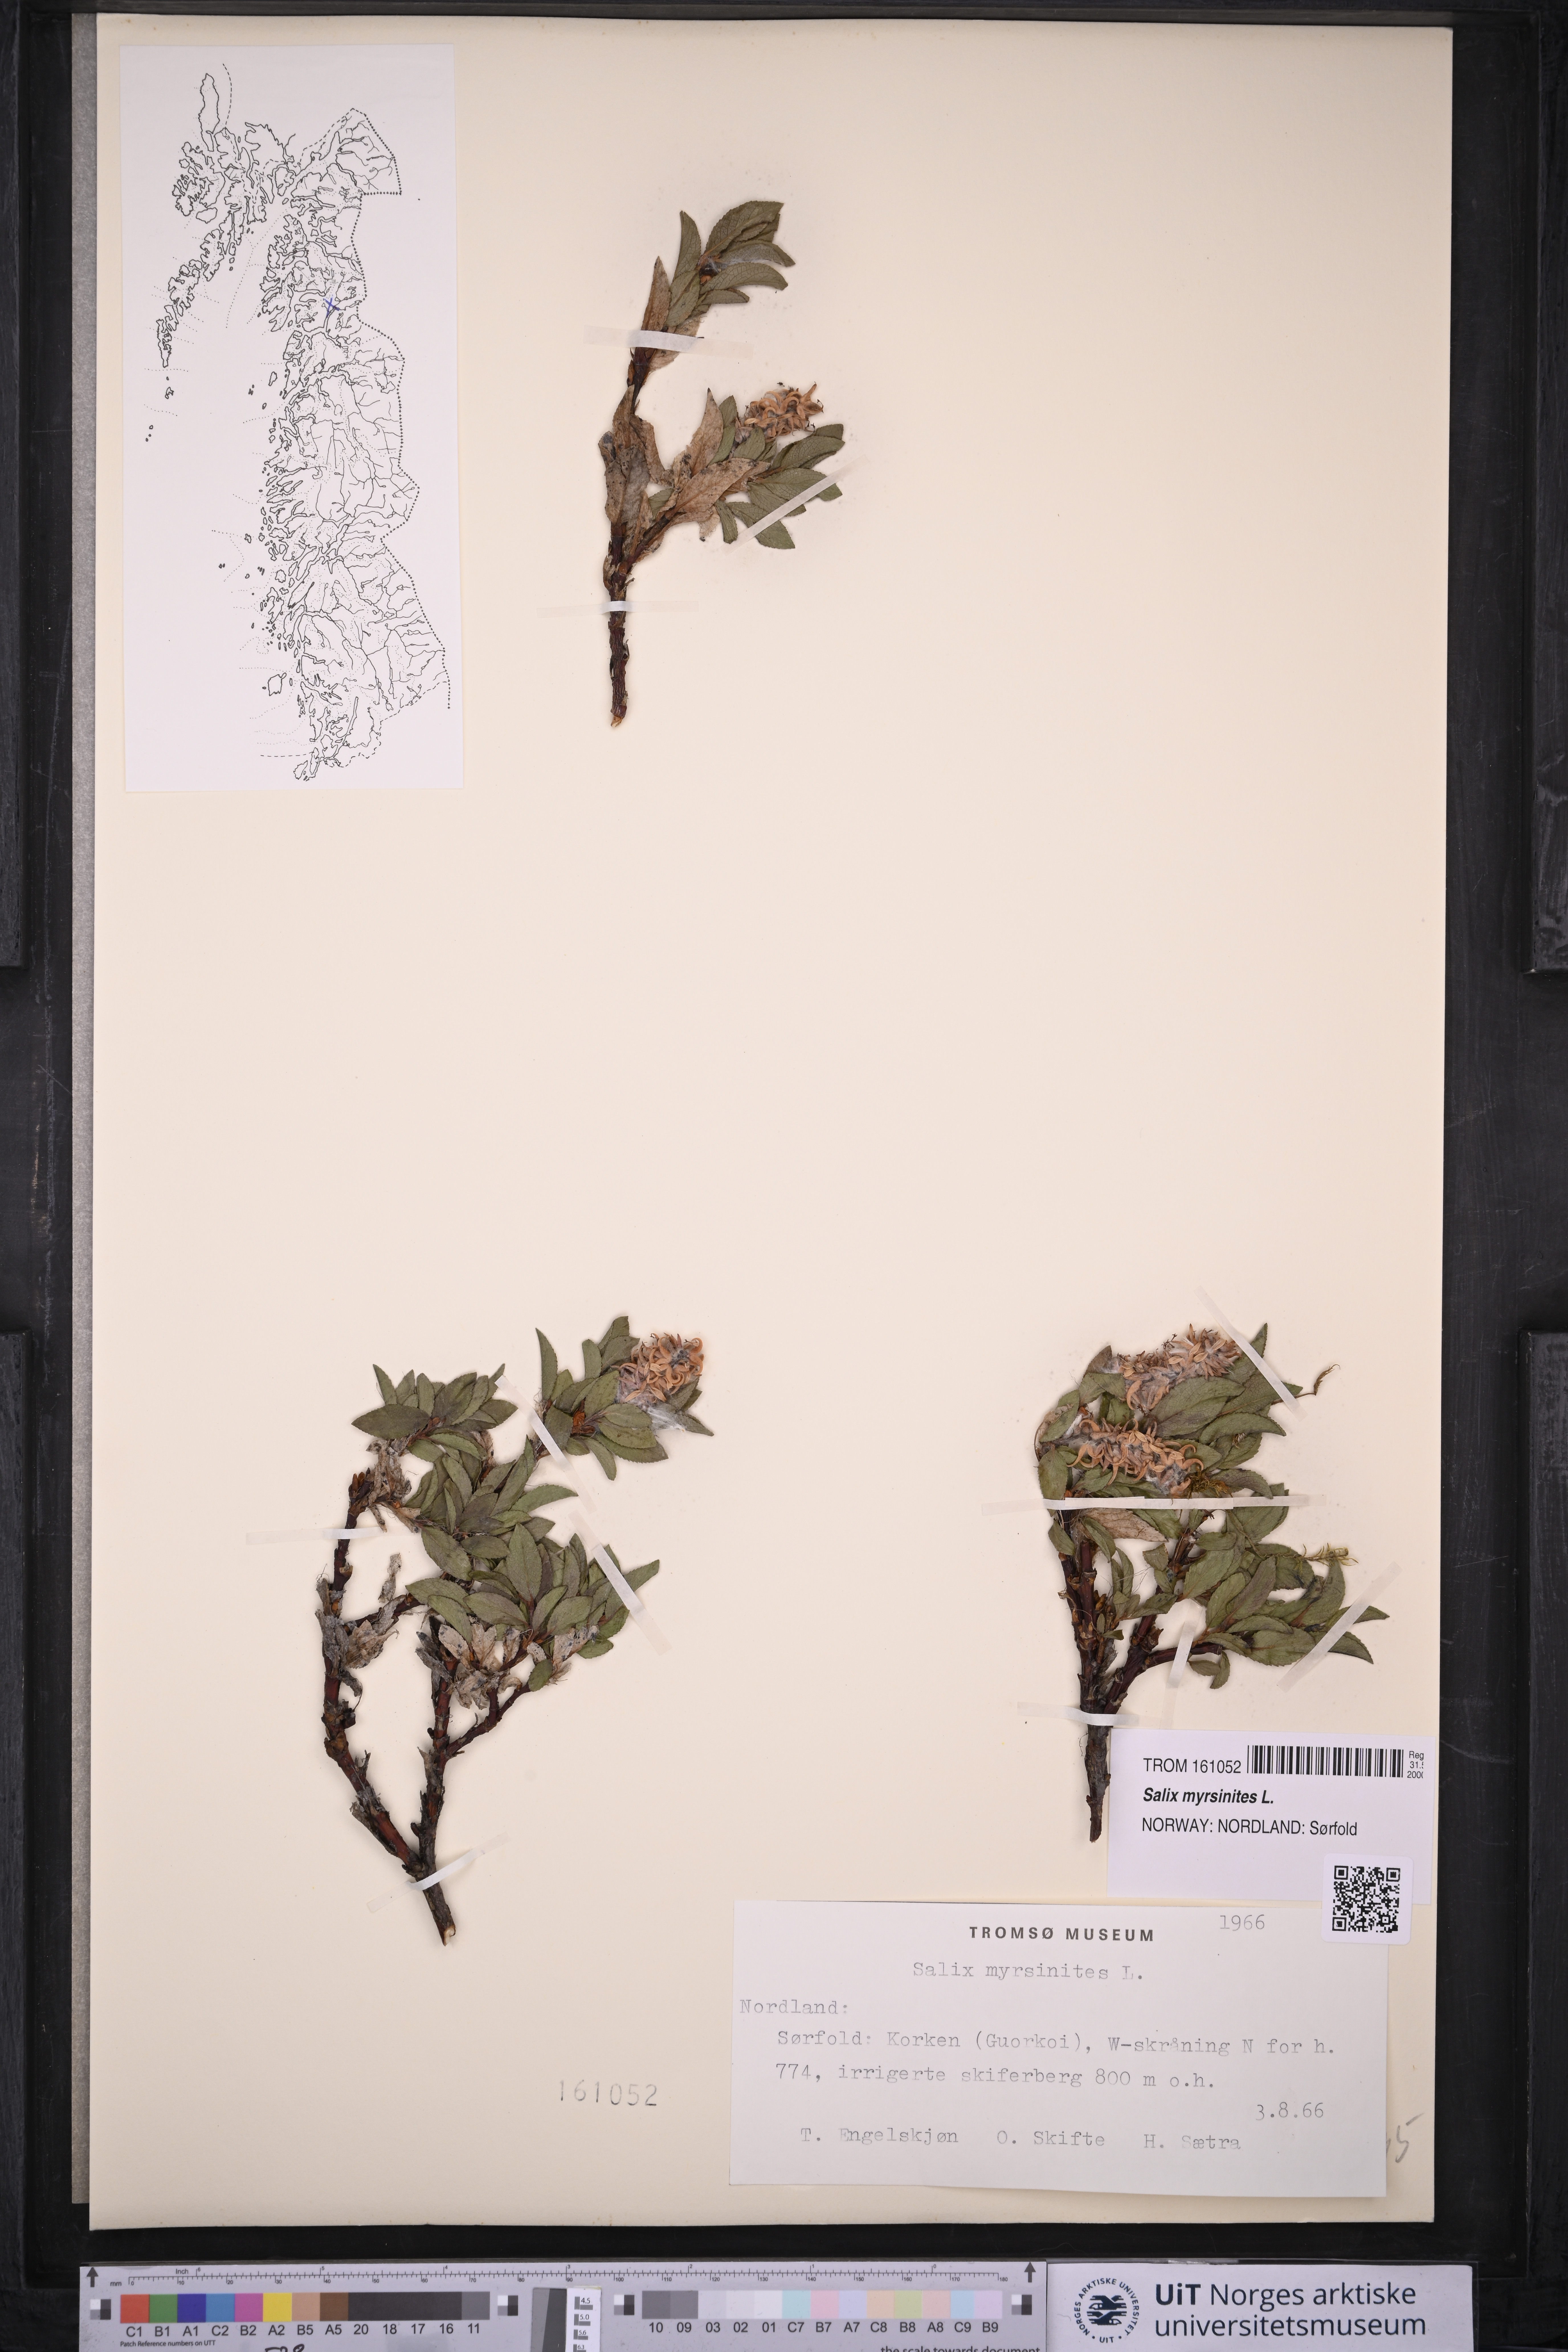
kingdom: Plantae
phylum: Tracheophyta
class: Magnoliopsida
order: Malpighiales
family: Salicaceae
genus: Salix
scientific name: Salix myrsinites
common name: Myrtle willow
